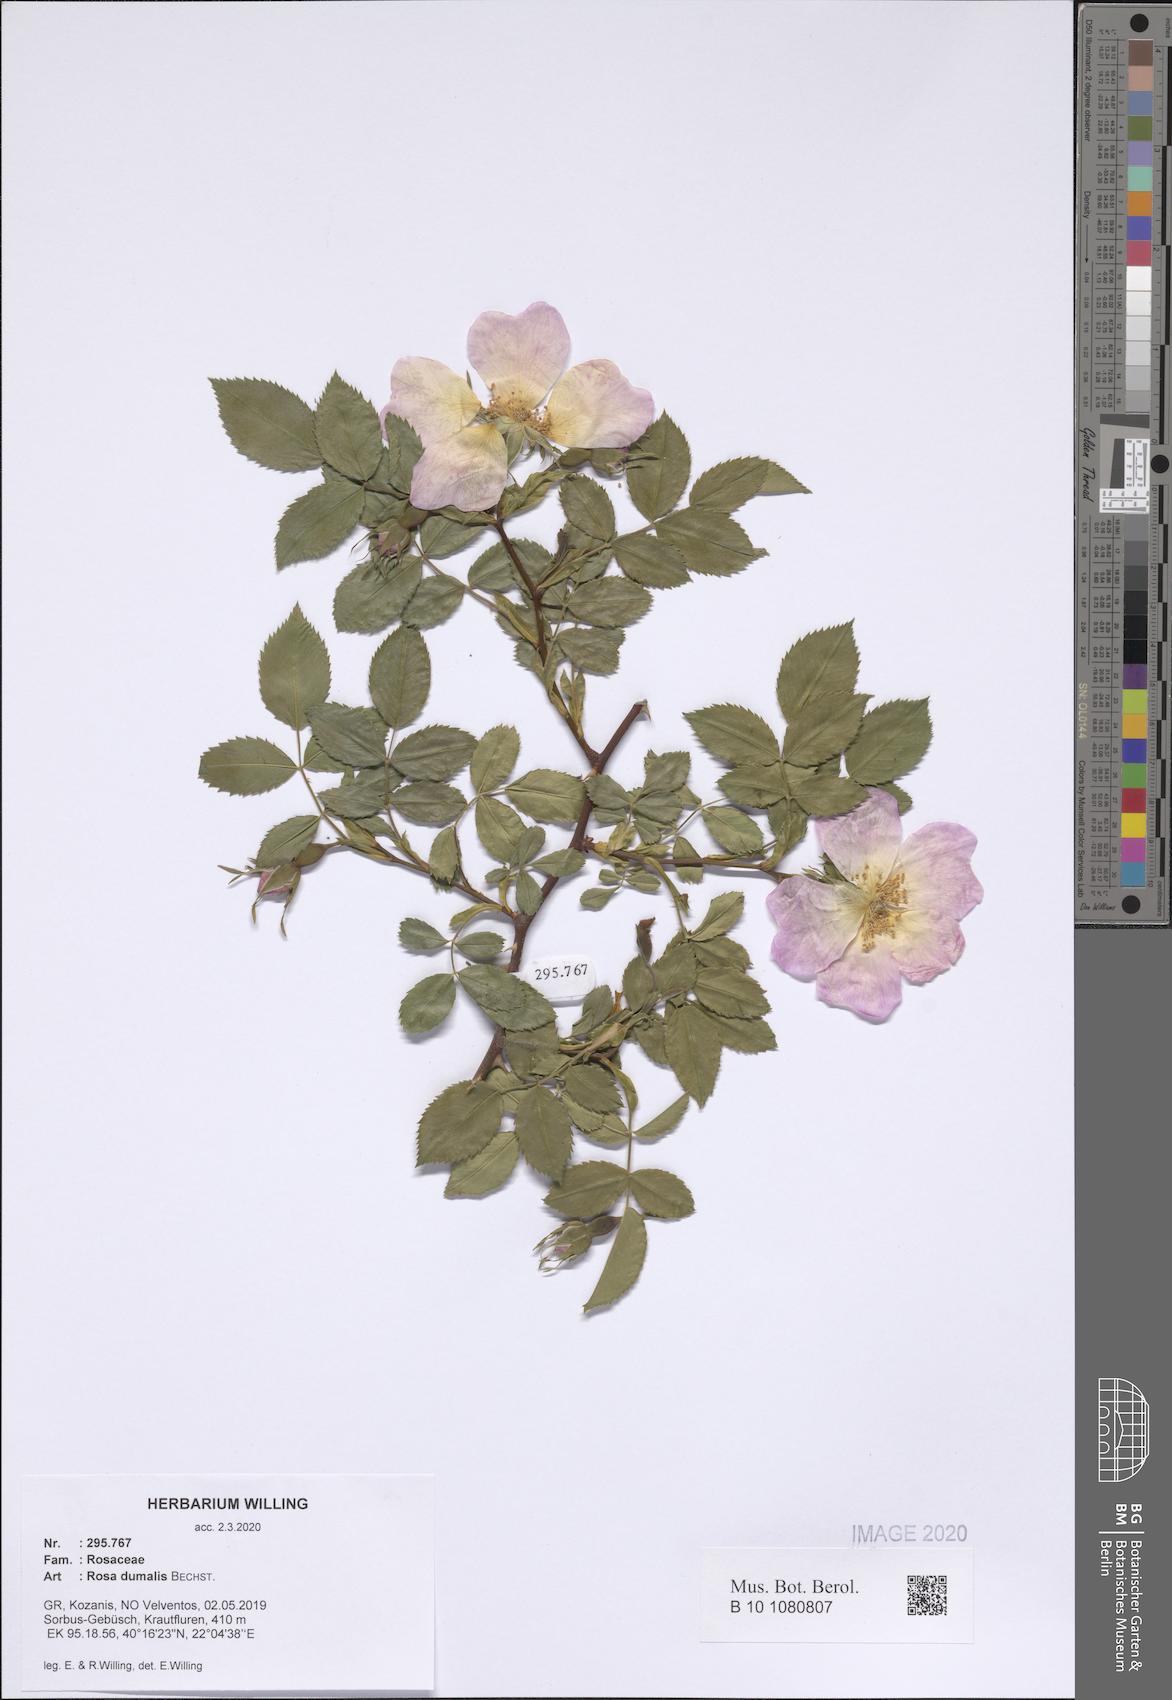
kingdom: Plantae
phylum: Tracheophyta
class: Magnoliopsida
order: Rosales
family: Rosaceae
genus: Rosa
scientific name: Rosa dumalis
